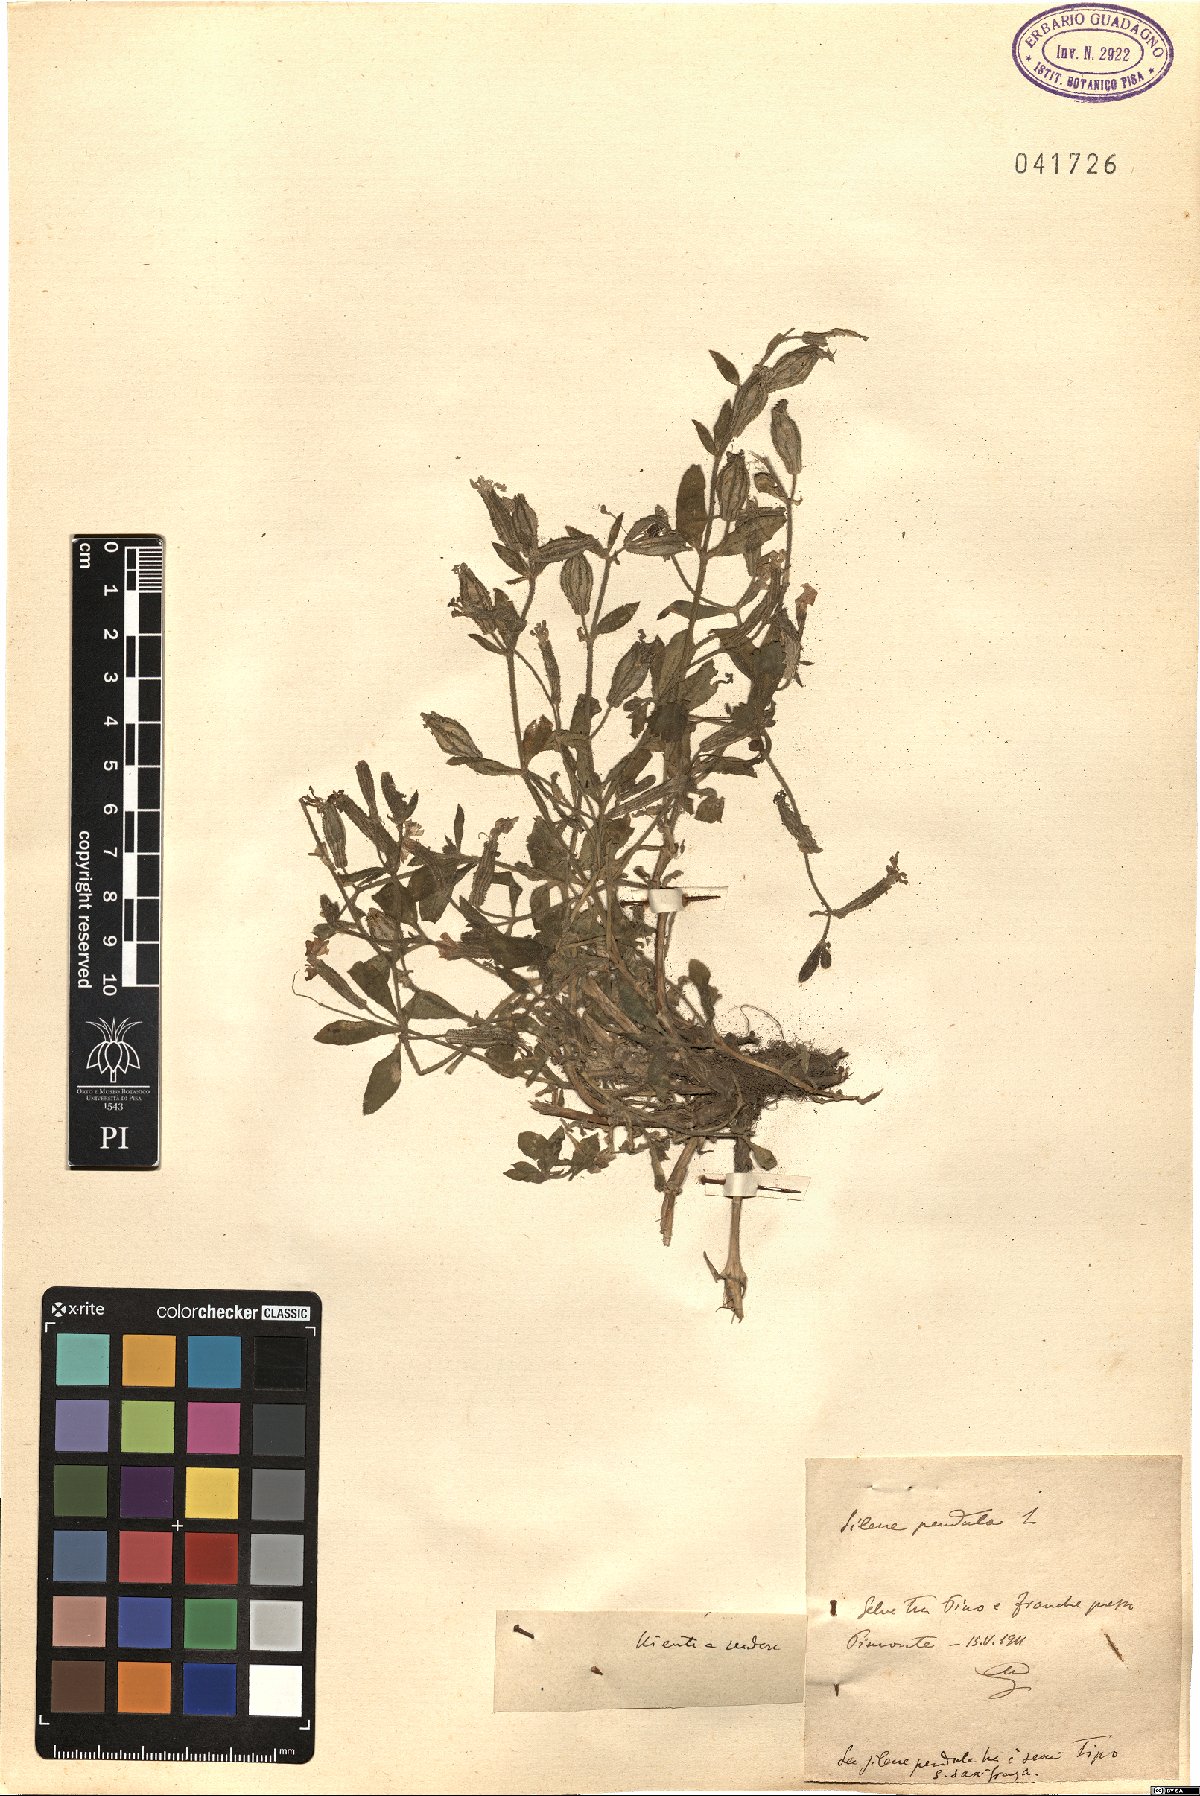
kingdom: Plantae
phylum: Tracheophyta
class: Magnoliopsida
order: Caryophyllales
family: Caryophyllaceae
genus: Silene
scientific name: Silene pendula
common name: Nodding catchfly
